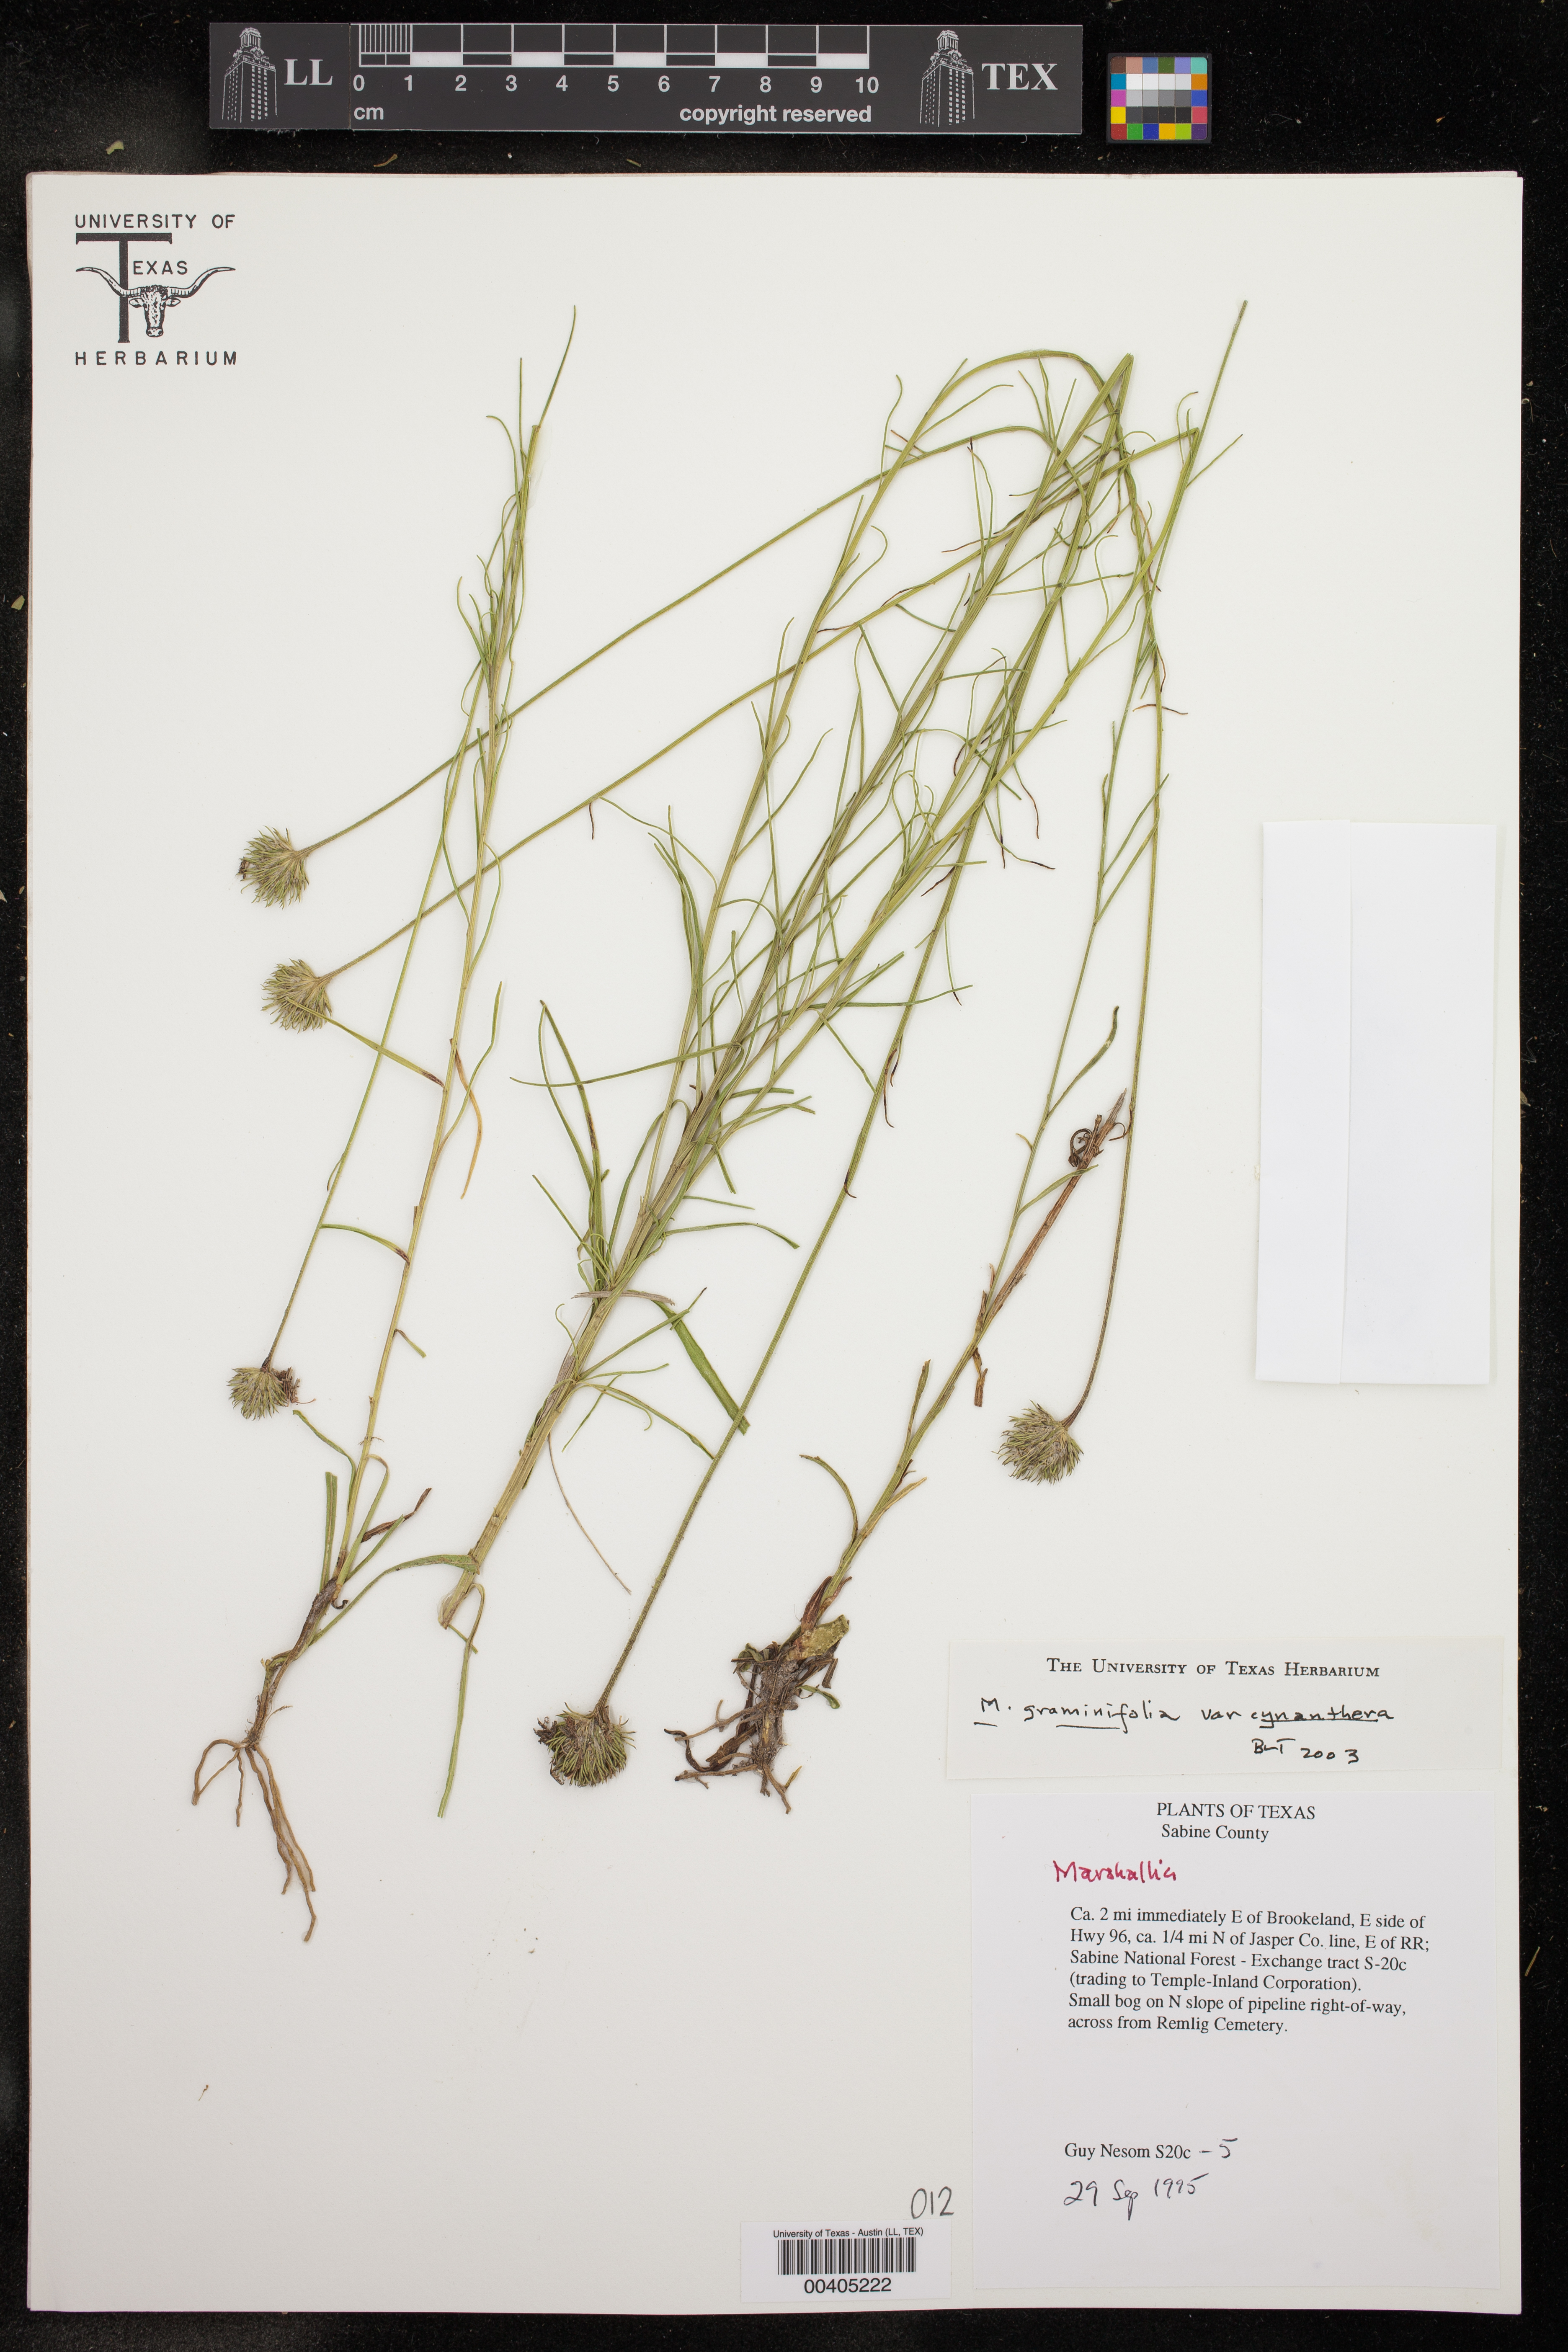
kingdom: Plantae
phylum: Tracheophyta
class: Magnoliopsida
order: Asterales
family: Asteraceae
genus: Marshallia
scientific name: Marshallia
